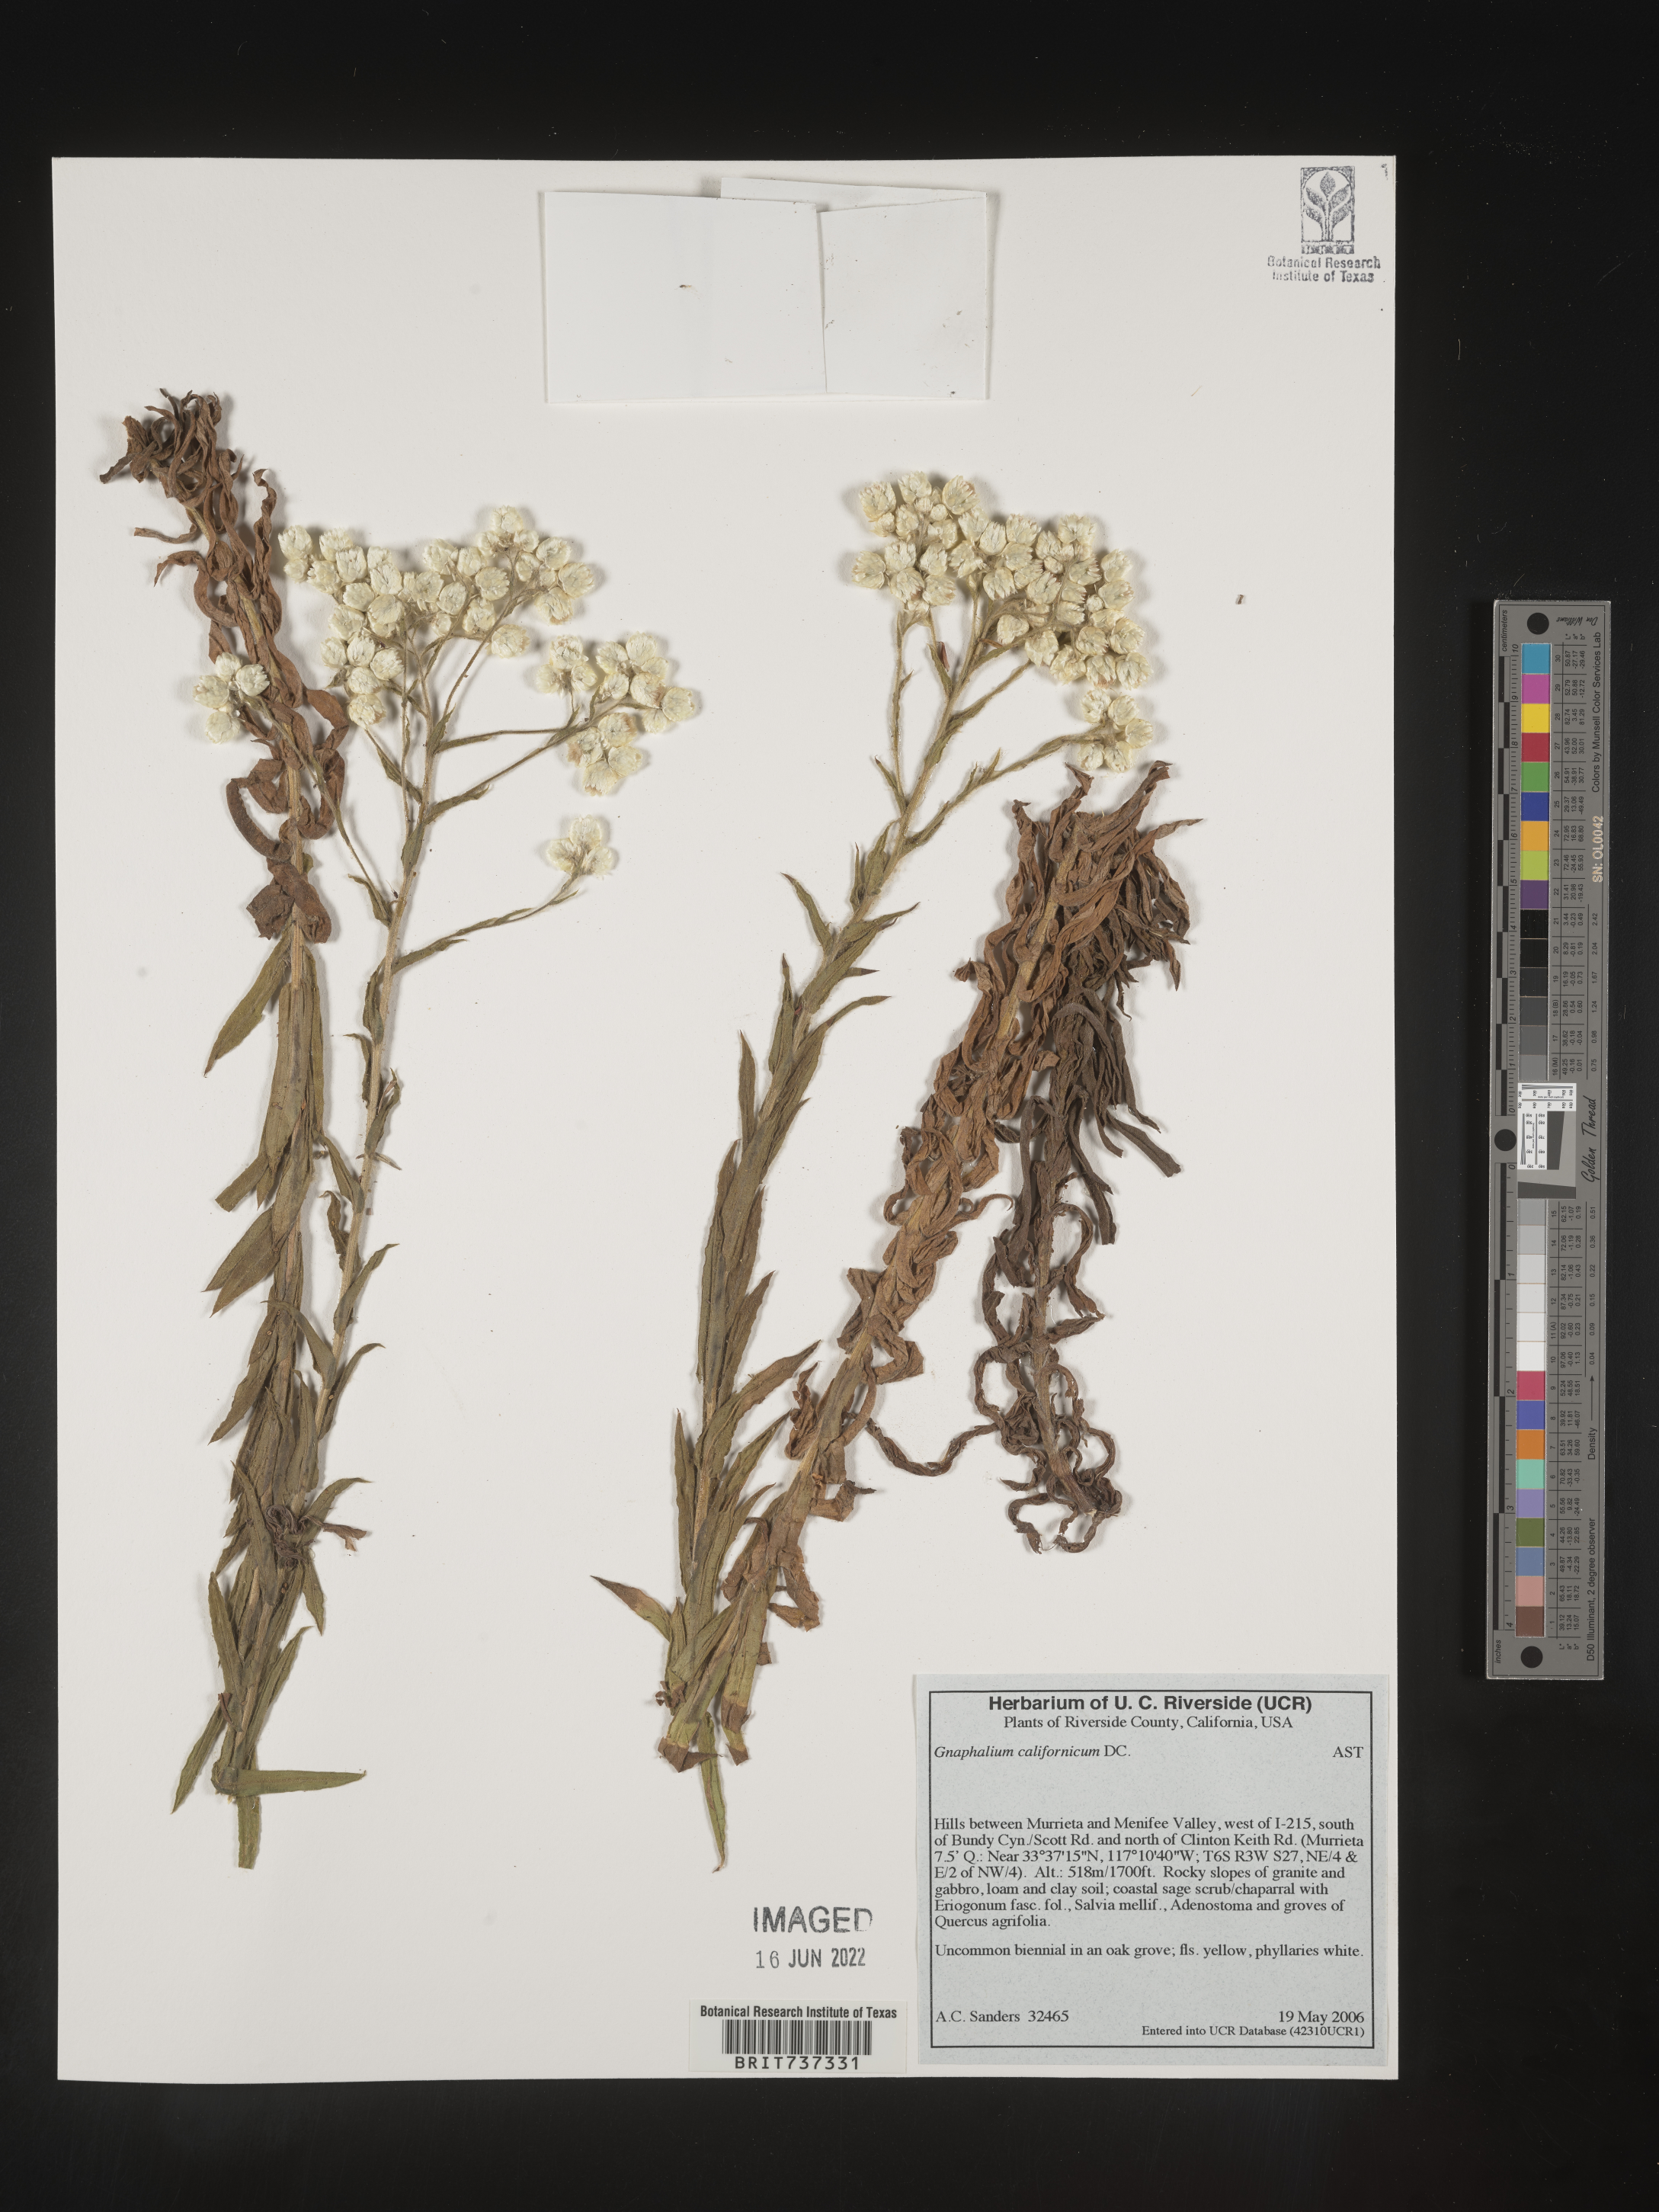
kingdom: Plantae
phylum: Tracheophyta
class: Magnoliopsida
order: Asterales
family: Asteraceae
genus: Pseudognaphalium
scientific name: Pseudognaphalium californicum
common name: California rabbit-tobacco
